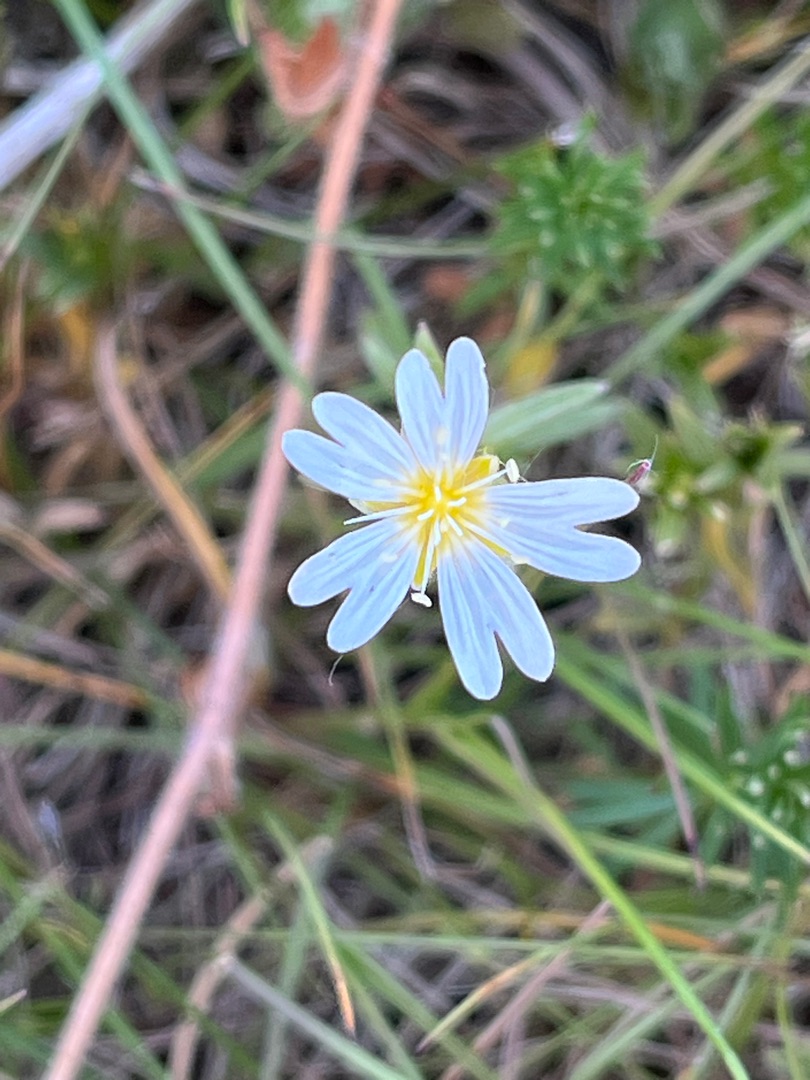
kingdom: Plantae
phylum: Tracheophyta
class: Magnoliopsida
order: Caryophyllales
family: Caryophyllaceae
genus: Cerastium
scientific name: Cerastium arvense
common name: Storblomstret hønsetarm
